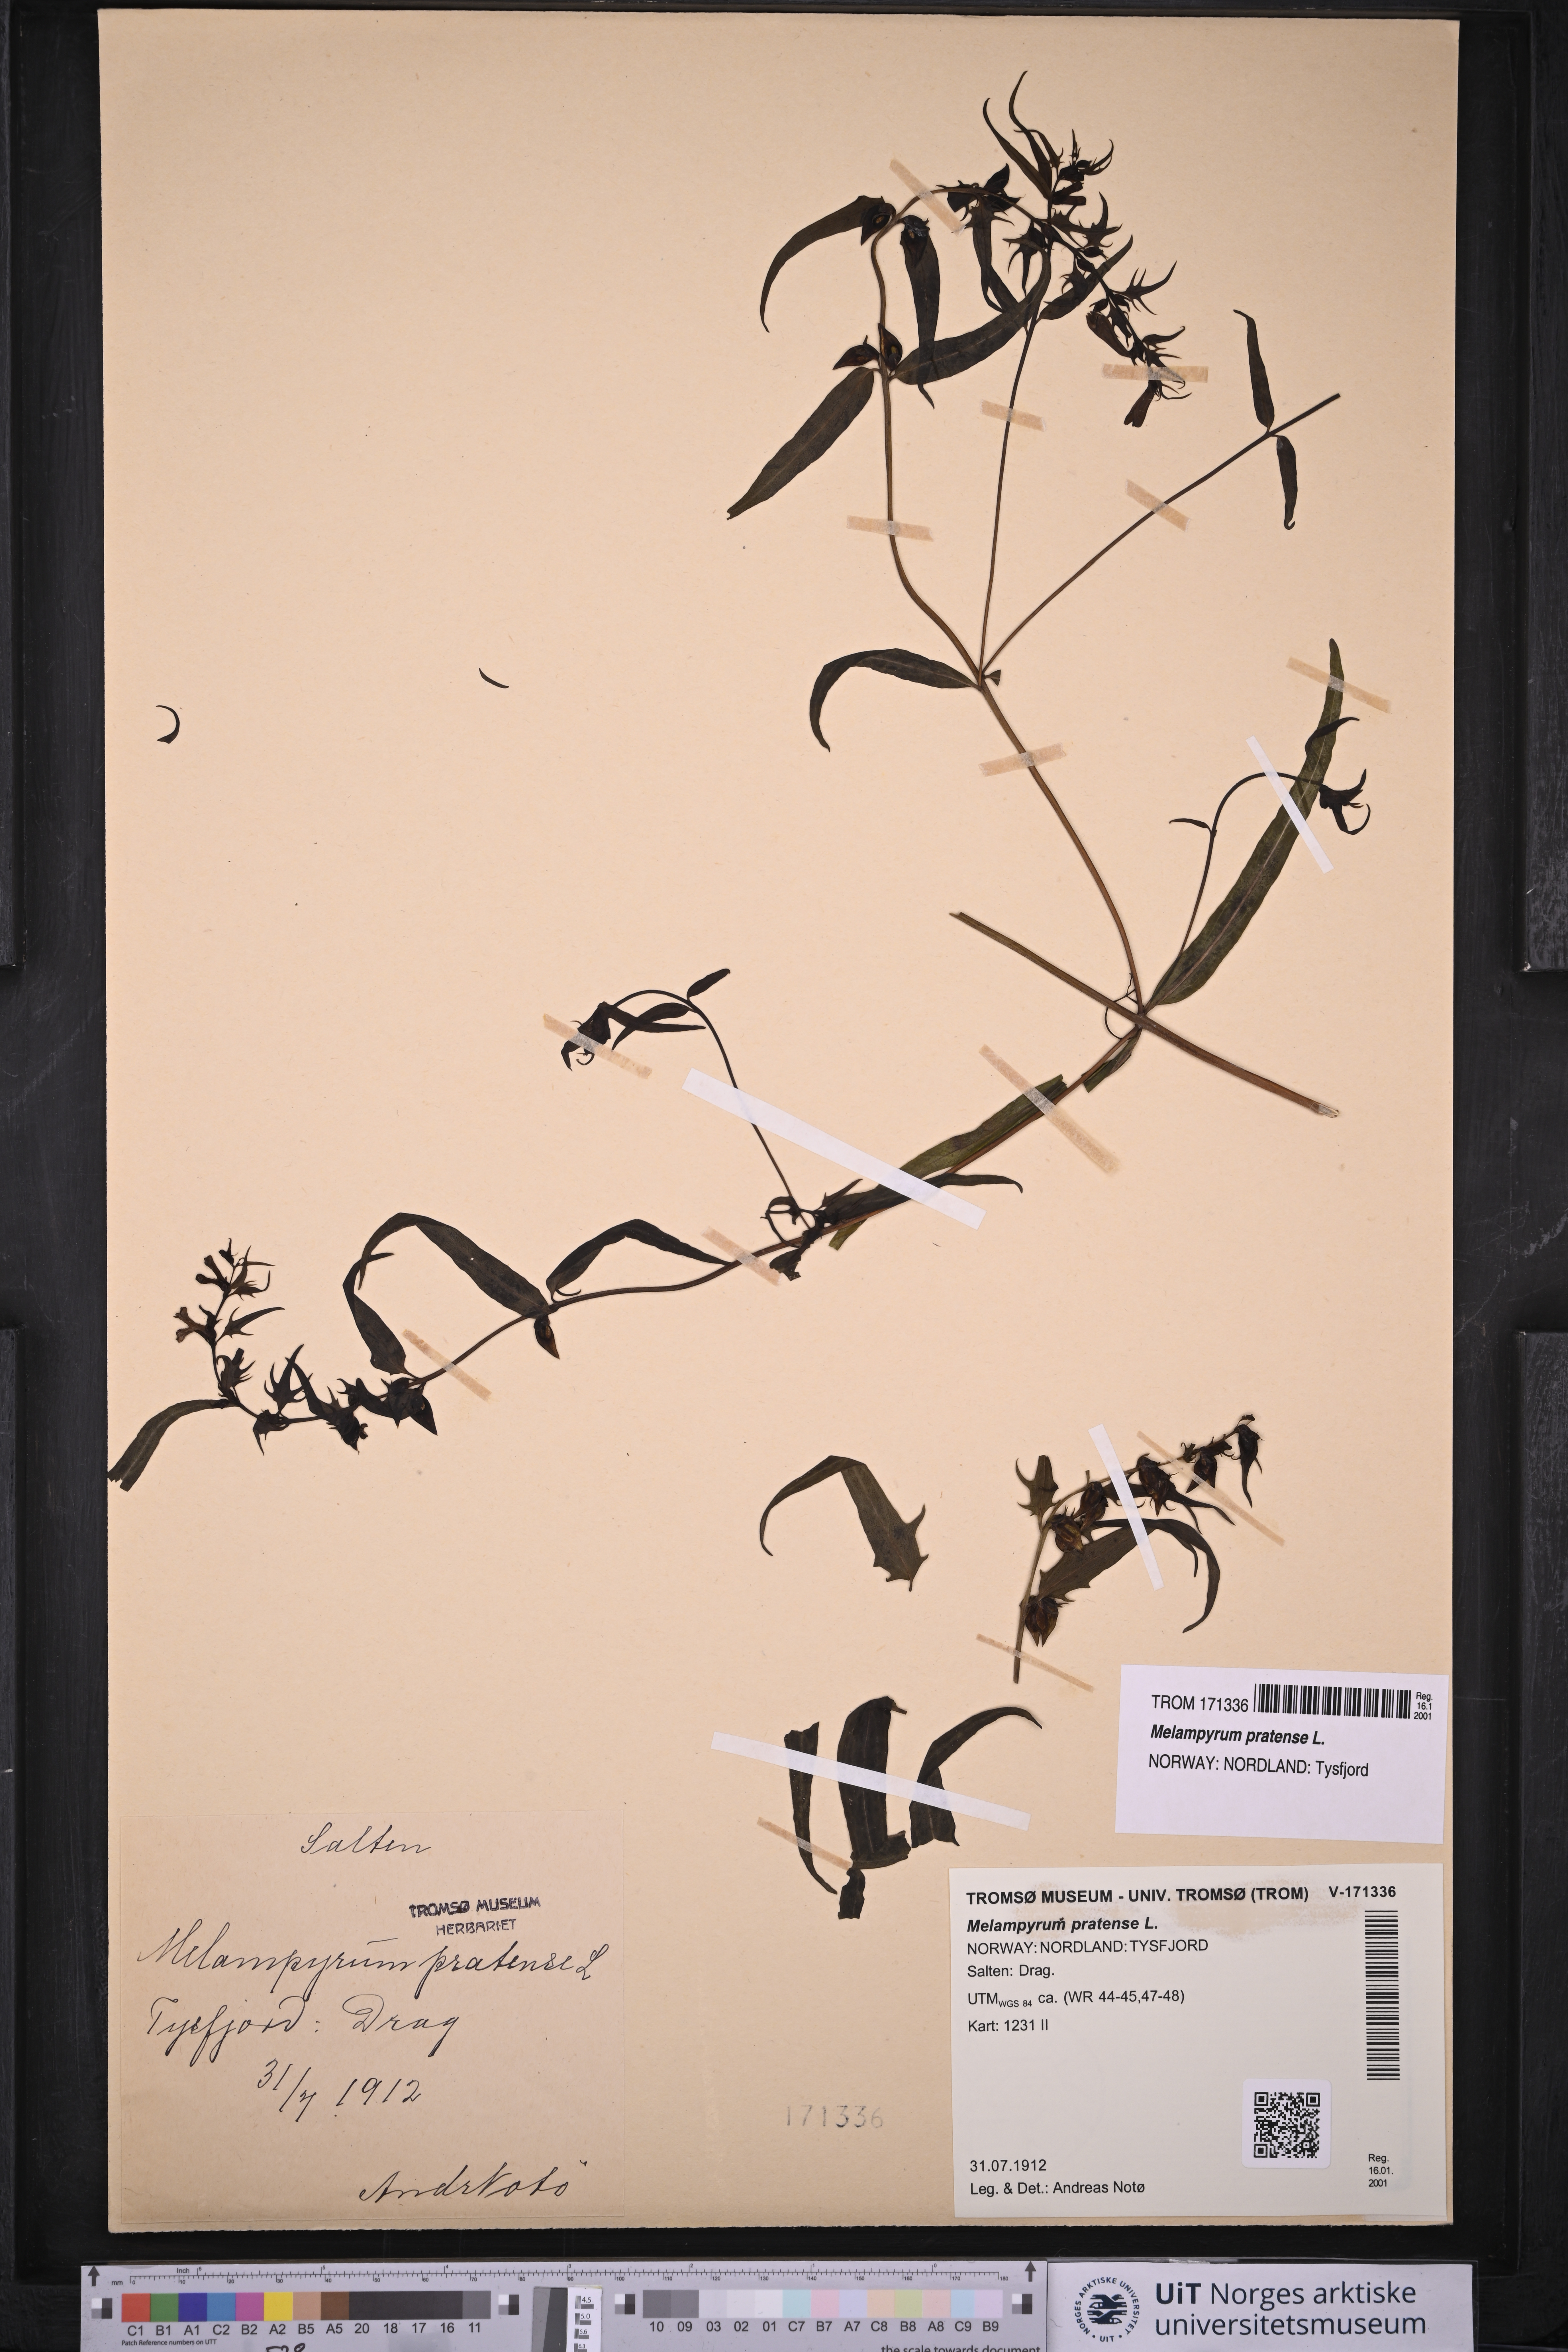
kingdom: Plantae
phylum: Tracheophyta
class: Magnoliopsida
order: Lamiales
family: Orobanchaceae
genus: Melampyrum
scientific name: Melampyrum pratense
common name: Common cow-wheat
